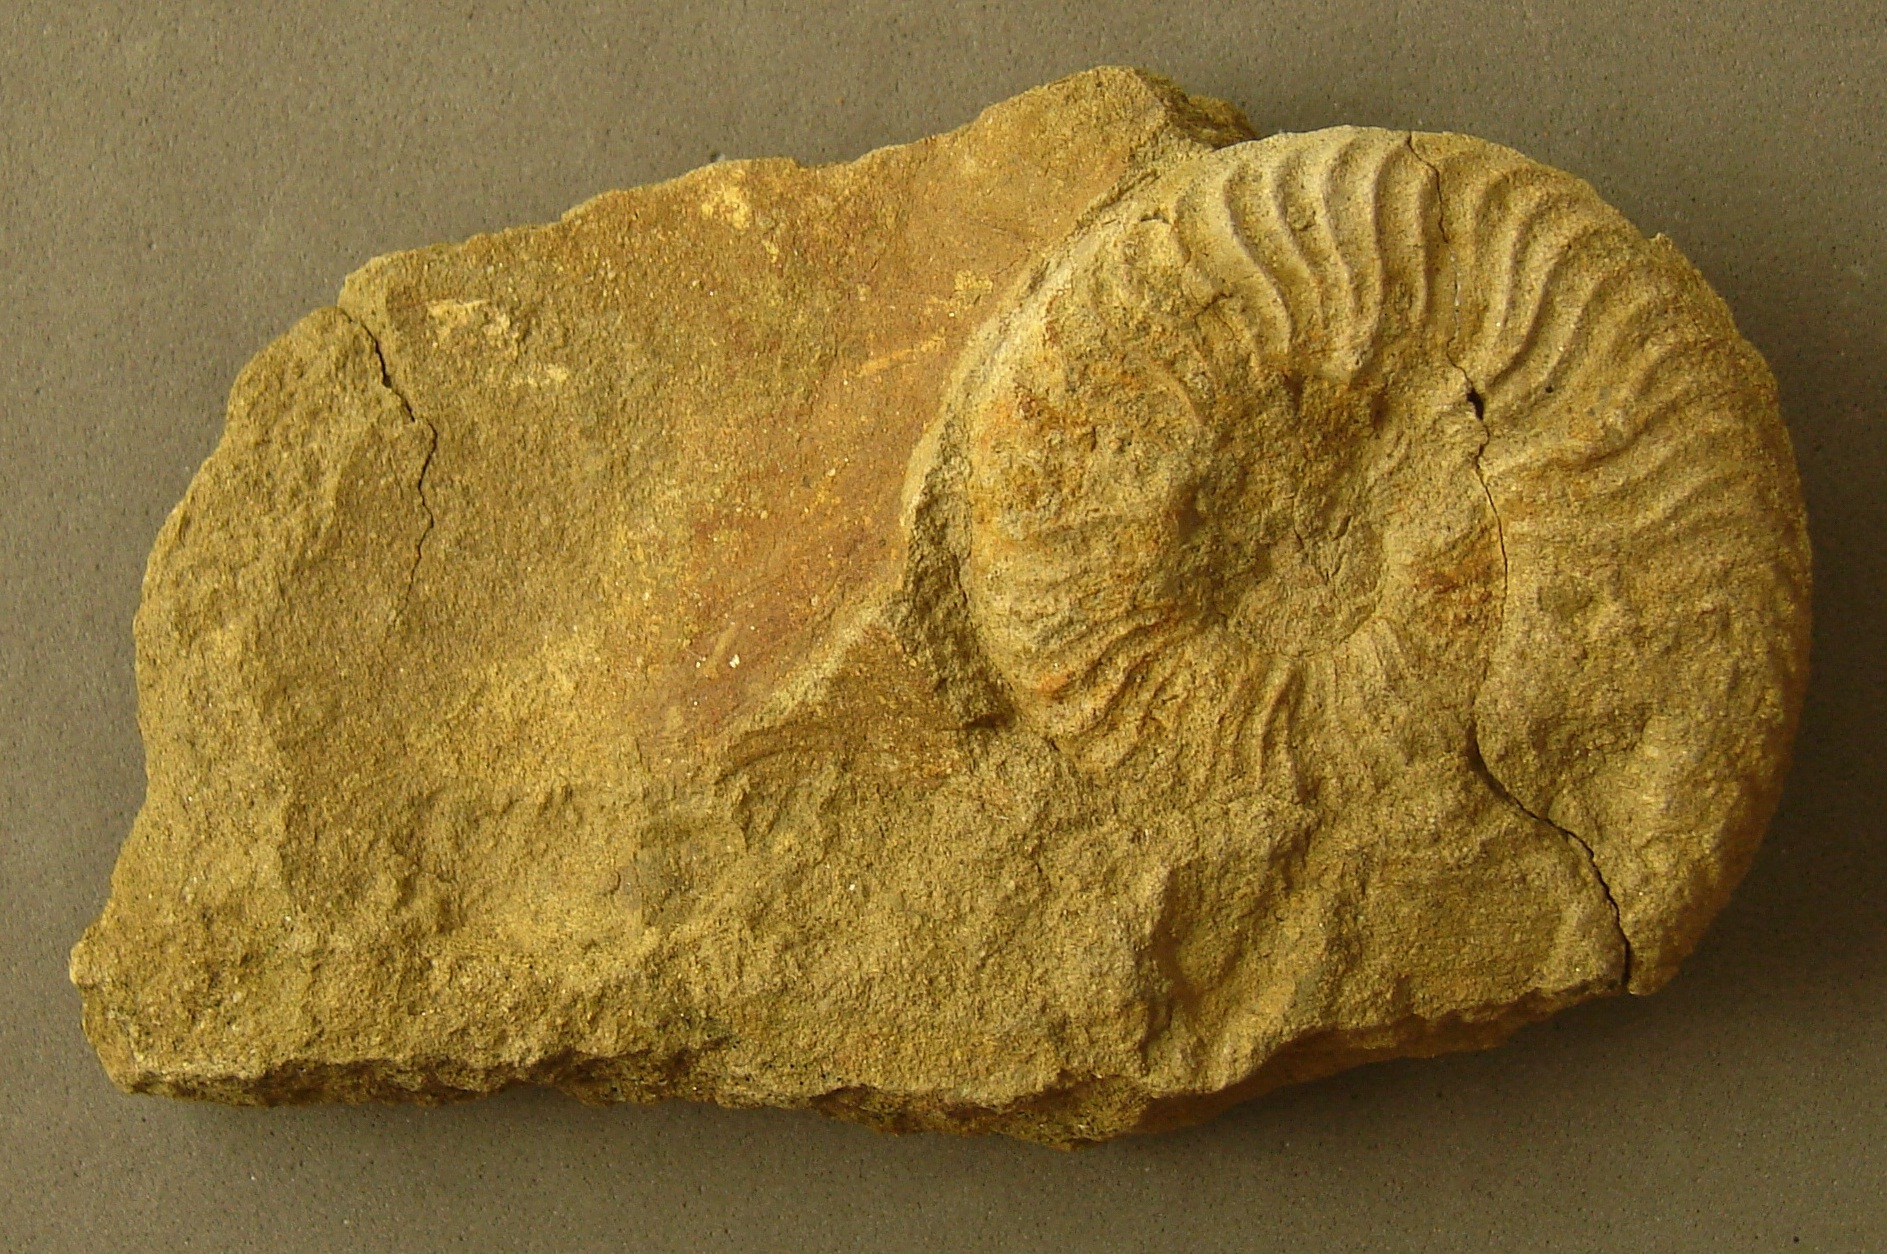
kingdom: Animalia
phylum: Mollusca
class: Cephalopoda
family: Hildoceratidae
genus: Pleydellia
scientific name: Pleydellia aalensis
